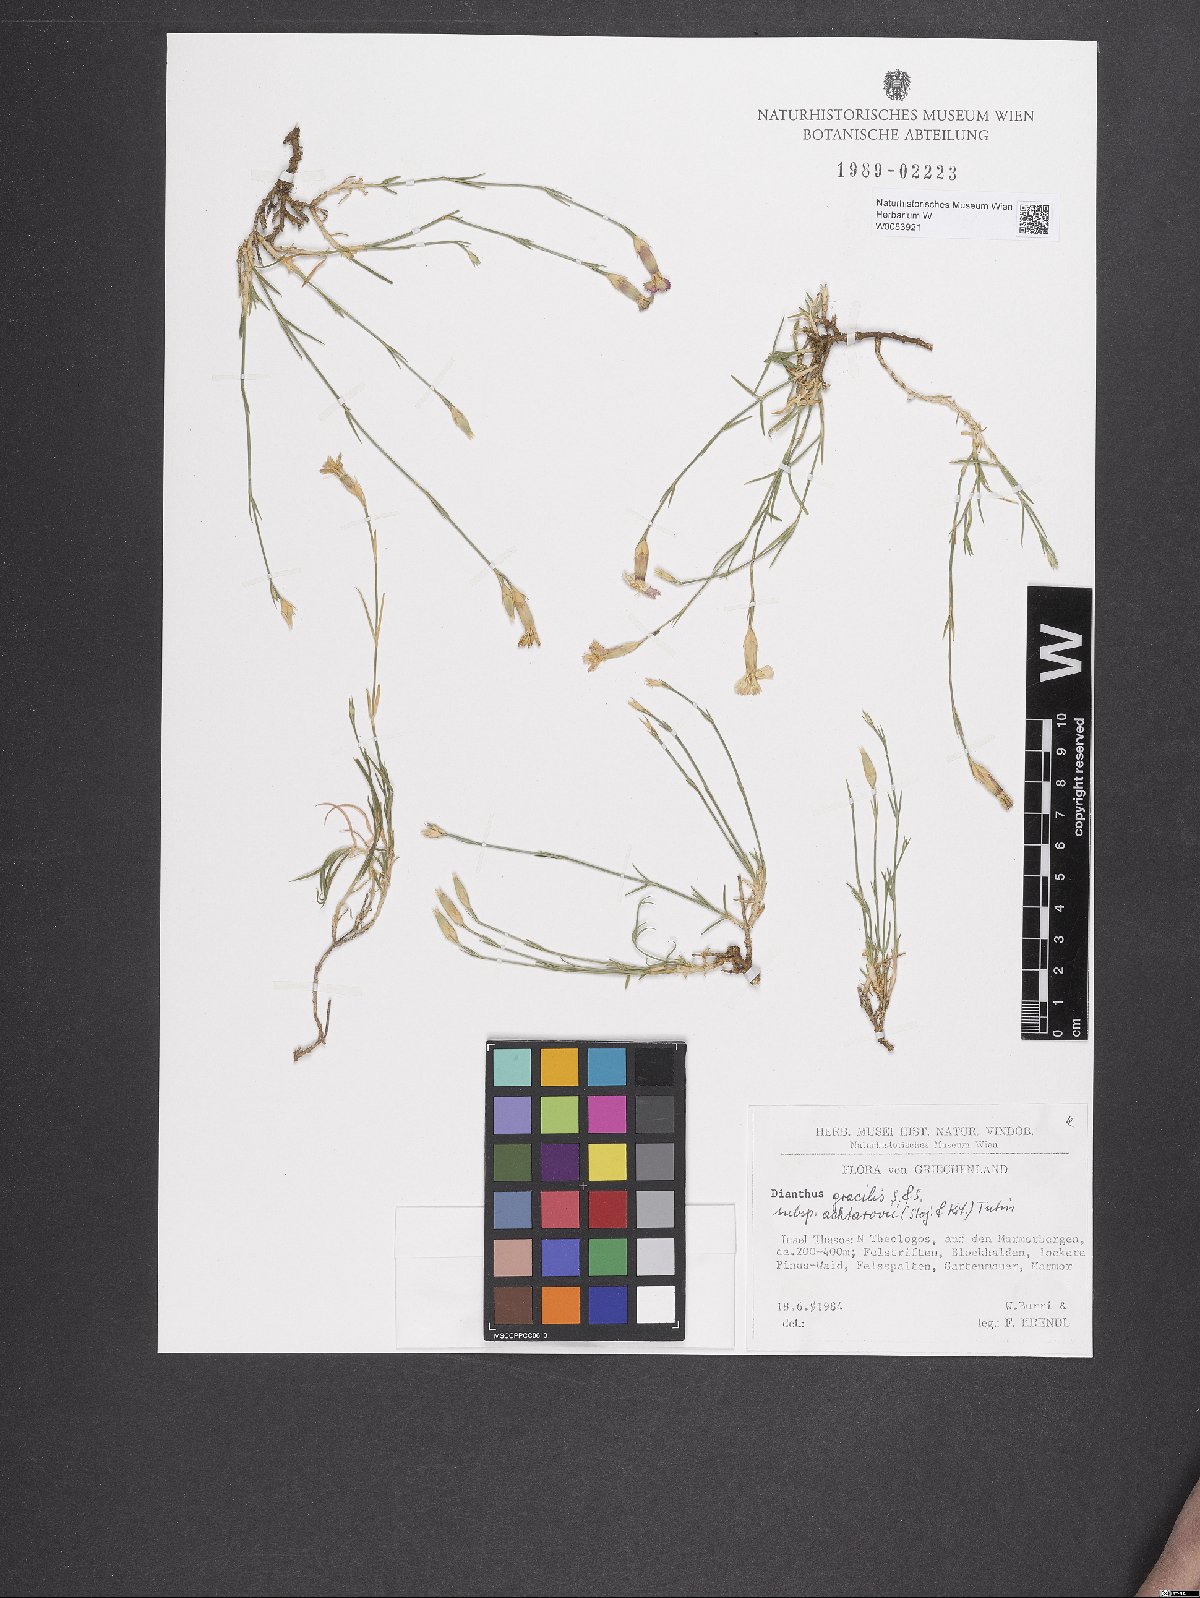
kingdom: Plantae
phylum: Tracheophyta
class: Magnoliopsida
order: Caryophyllales
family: Caryophyllaceae
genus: Dianthus
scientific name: Dianthus gracilis
